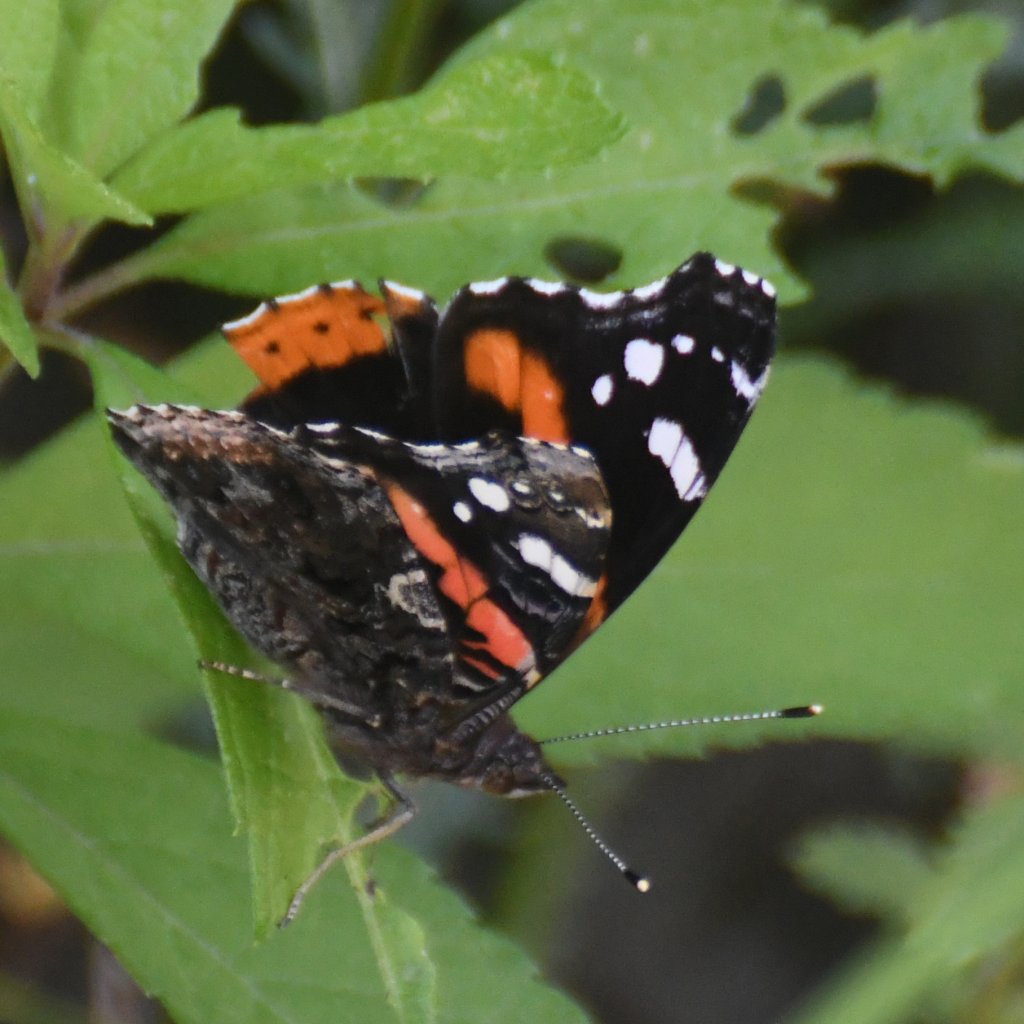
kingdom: Animalia
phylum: Arthropoda
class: Insecta
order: Lepidoptera
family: Nymphalidae
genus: Vanessa
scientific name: Vanessa atalanta
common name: Red Admiral
